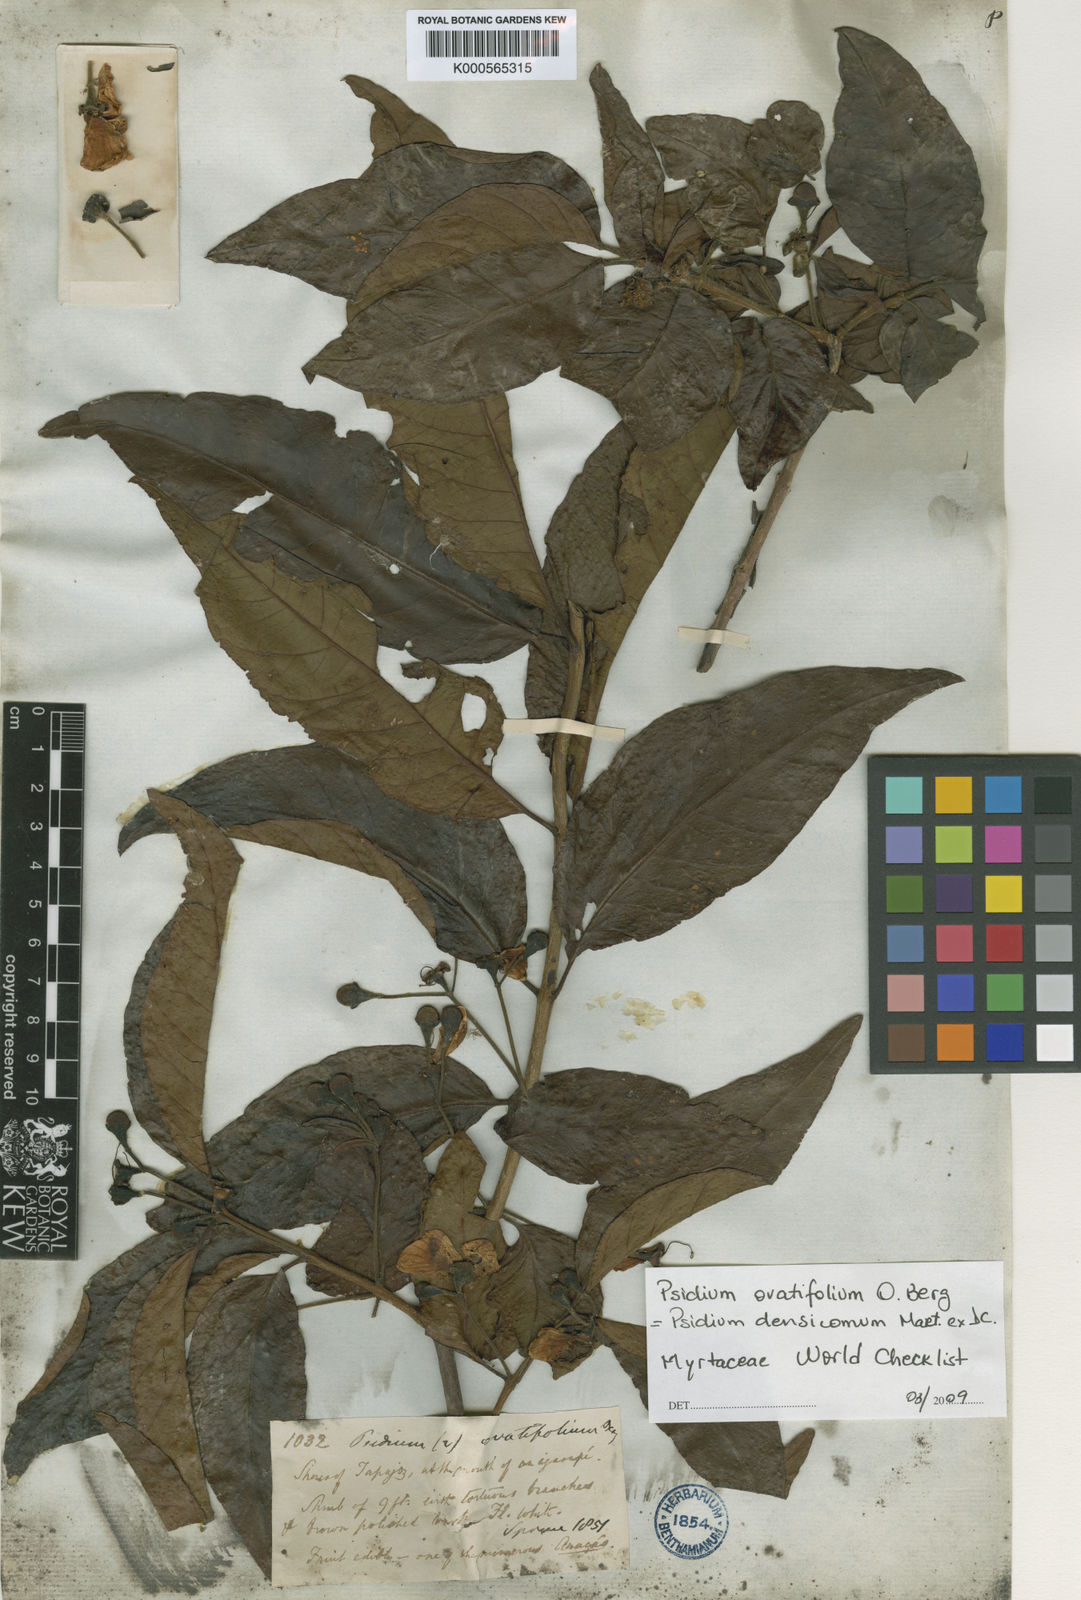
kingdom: Plantae
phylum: Tracheophyta
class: Magnoliopsida
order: Myrtales
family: Myrtaceae
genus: Psidium
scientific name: Psidium densicomum
